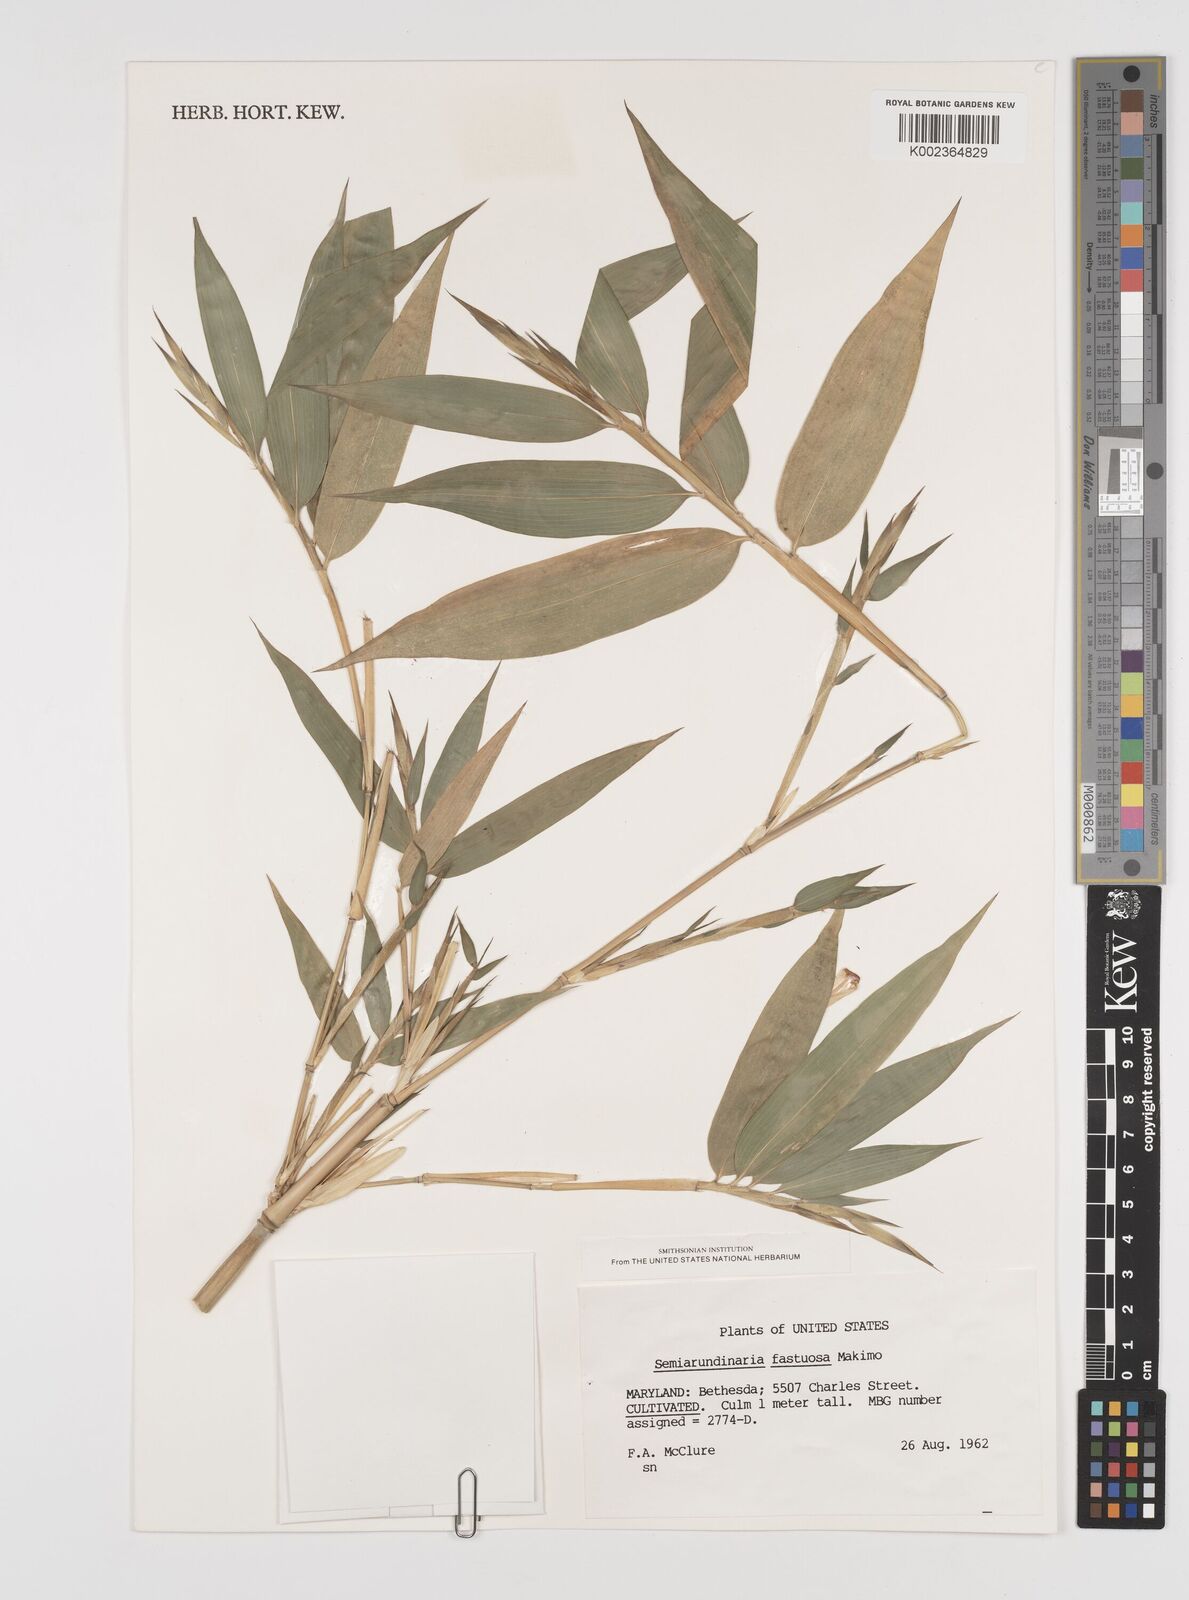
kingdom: Plantae
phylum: Tracheophyta
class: Liliopsida
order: Poales
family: Poaceae
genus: Semiarundinaria
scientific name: Semiarundinaria fastuosa
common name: Narihira bamboo
